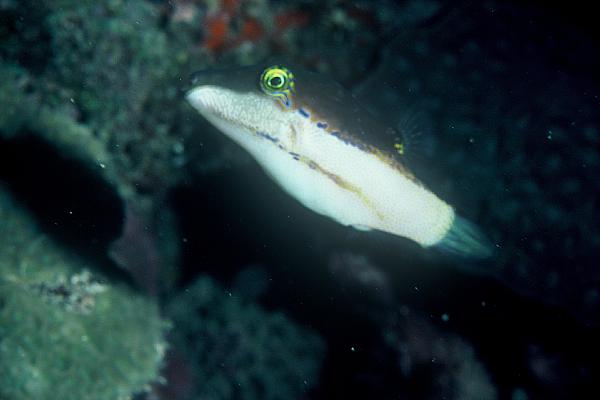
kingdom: Animalia
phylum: Chordata
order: Tetraodontiformes
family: Tetraodontidae
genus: Canthigaster
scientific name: Canthigaster smithae
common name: Bicolored toby
